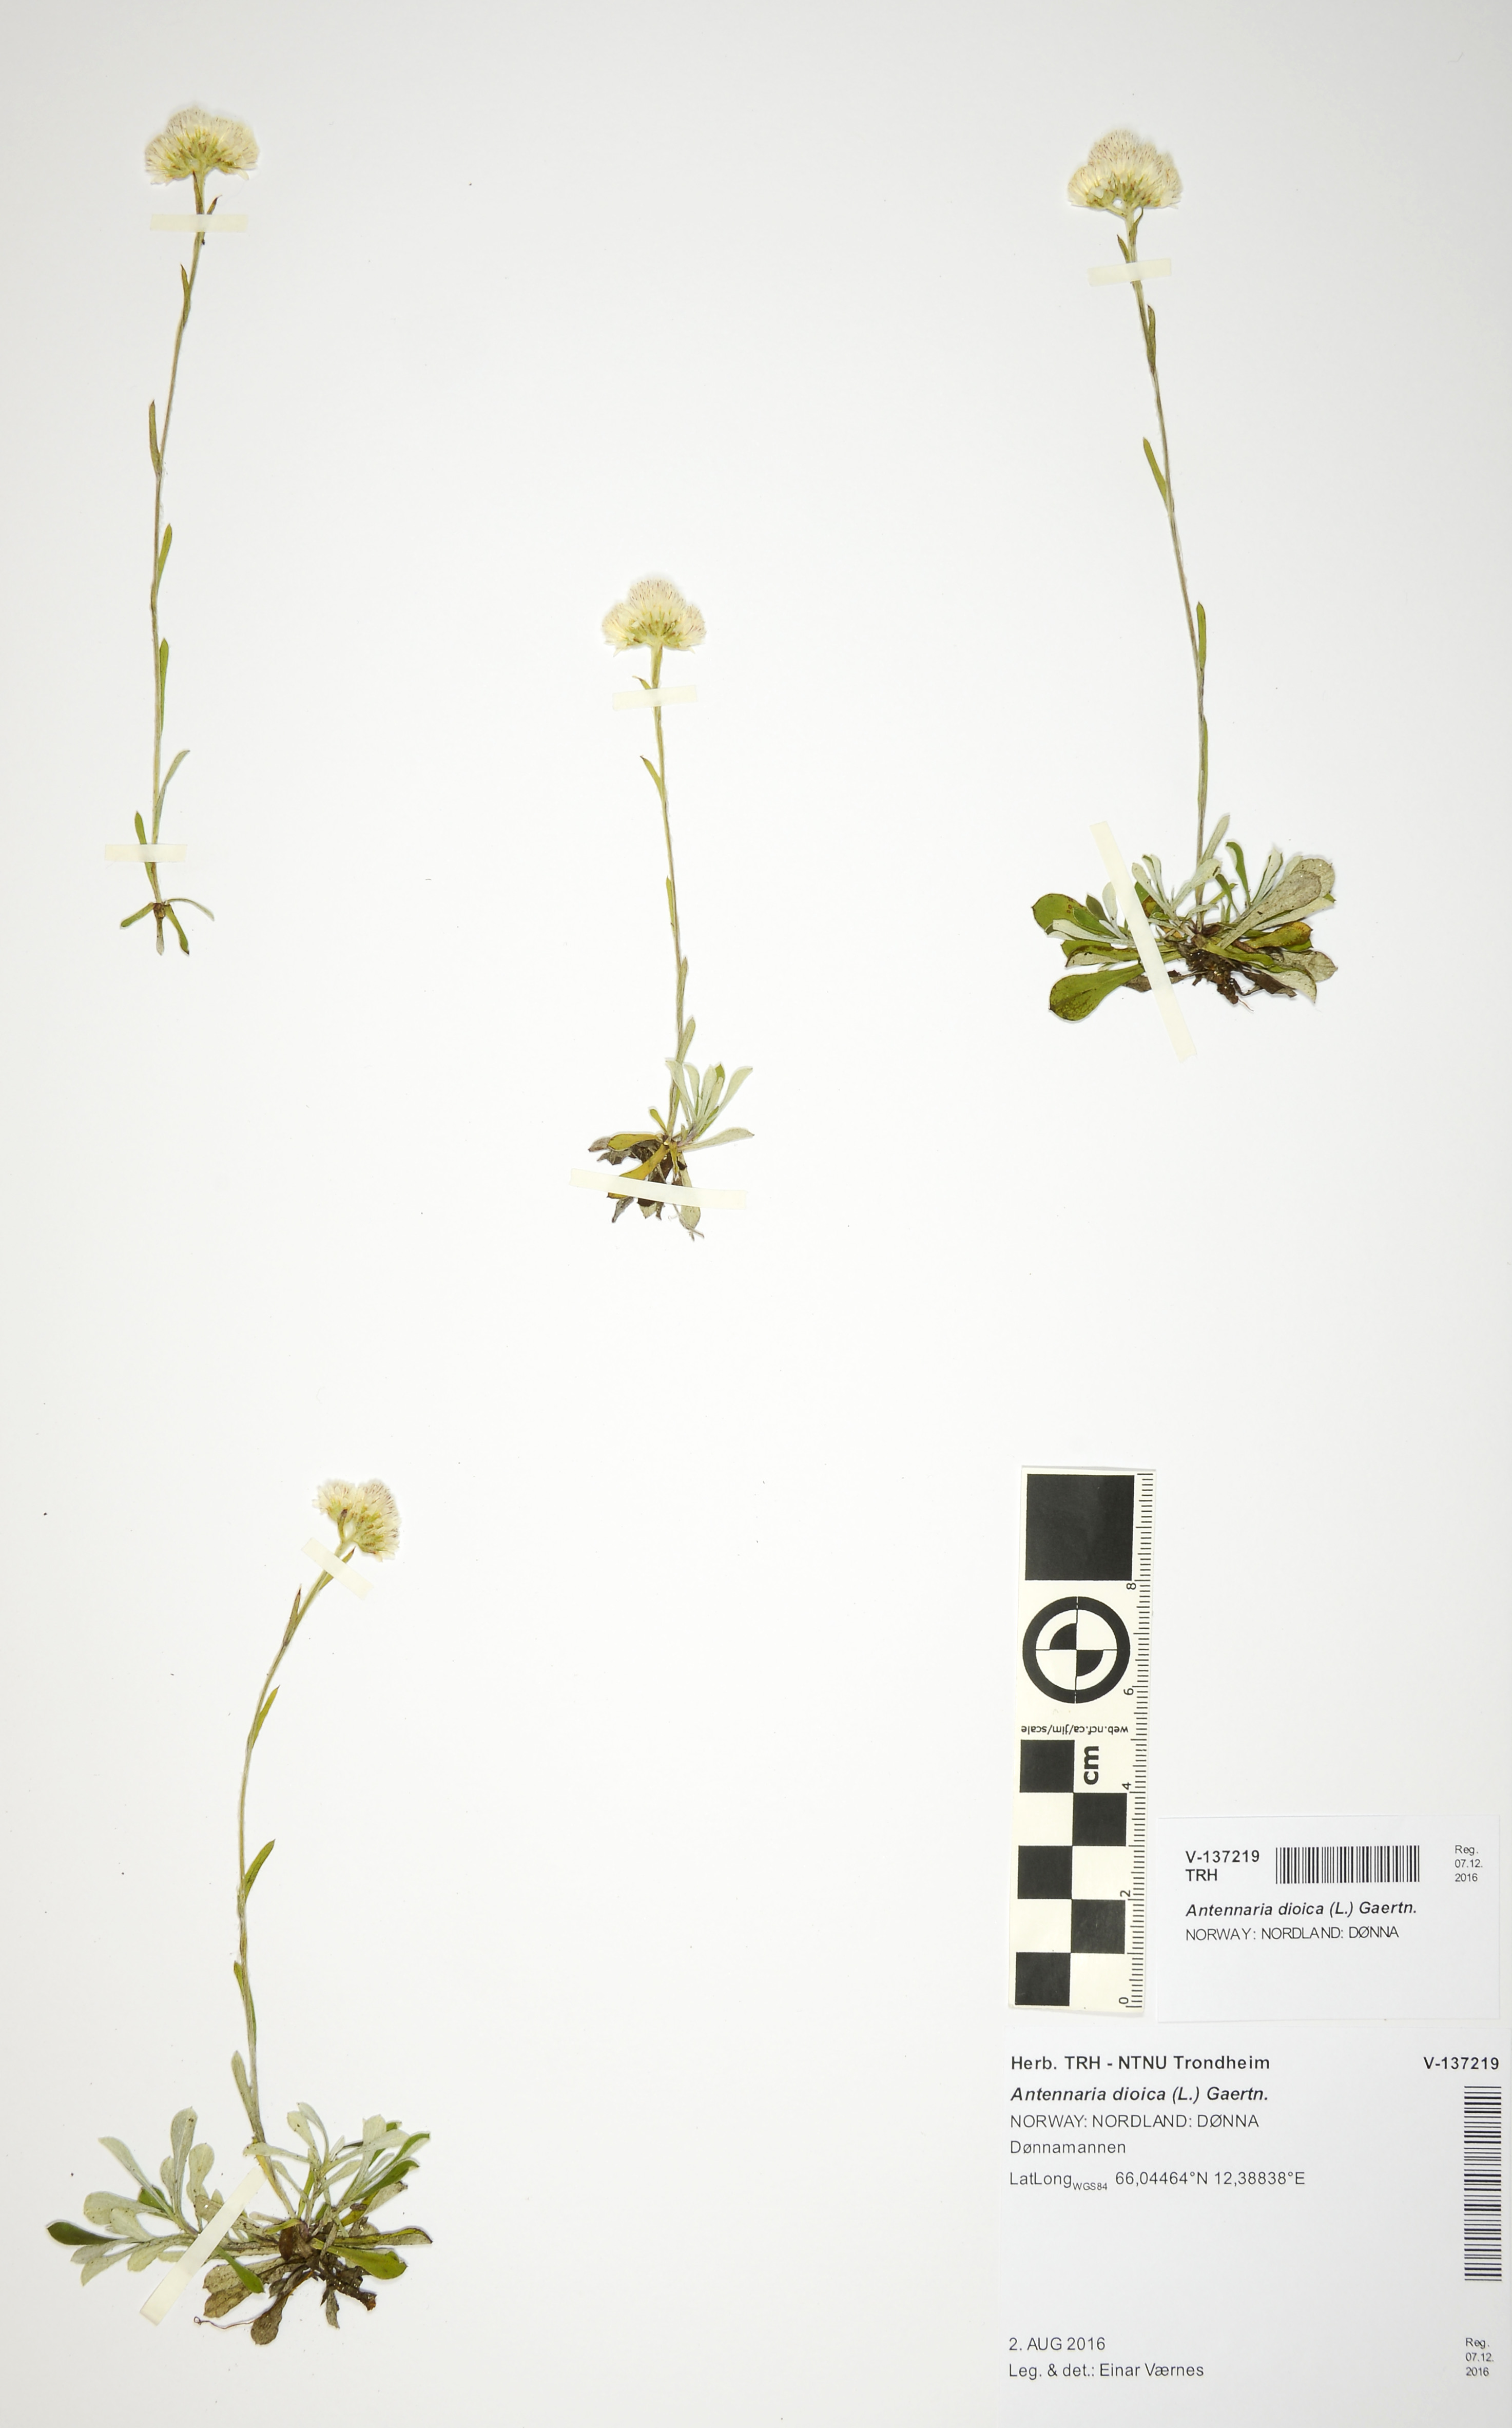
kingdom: Plantae
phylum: Tracheophyta
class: Magnoliopsida
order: Asterales
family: Asteraceae
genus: Antennaria
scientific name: Antennaria dioica
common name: Mountain everlasting
